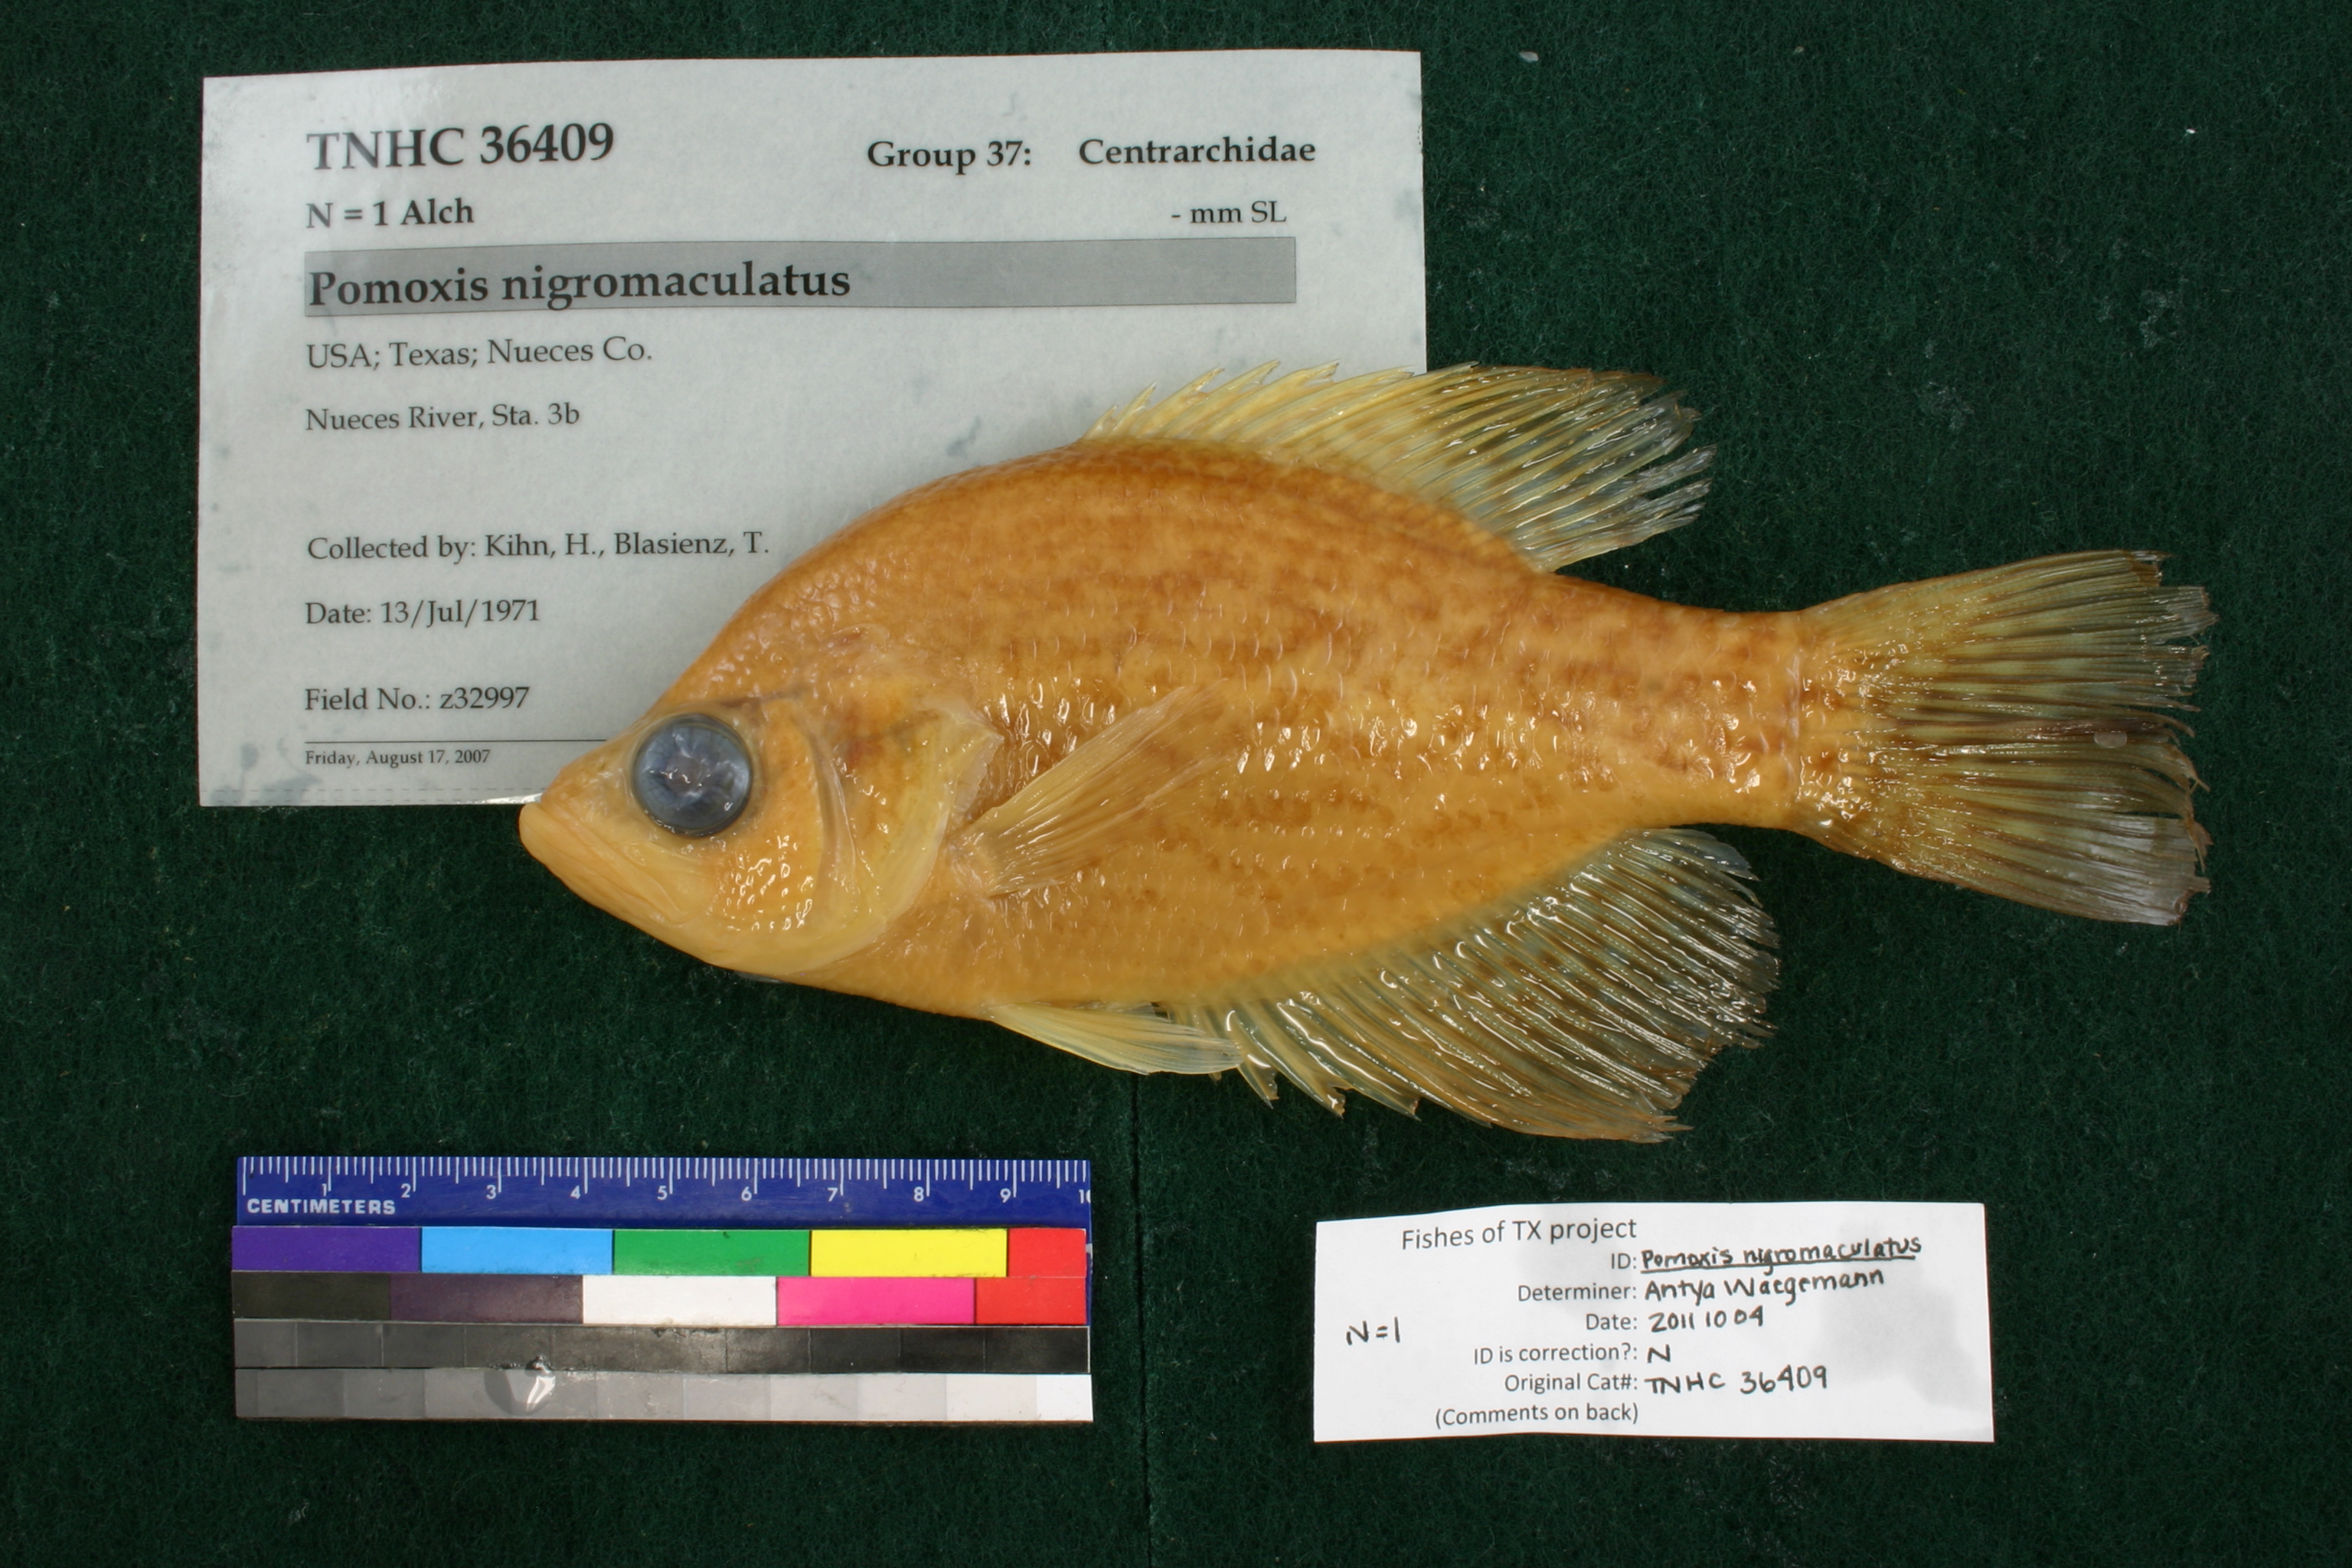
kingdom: Animalia
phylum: Chordata
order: Perciformes
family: Centrarchidae
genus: Pomoxis
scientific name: Pomoxis nigromaculatus
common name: Black crappie
